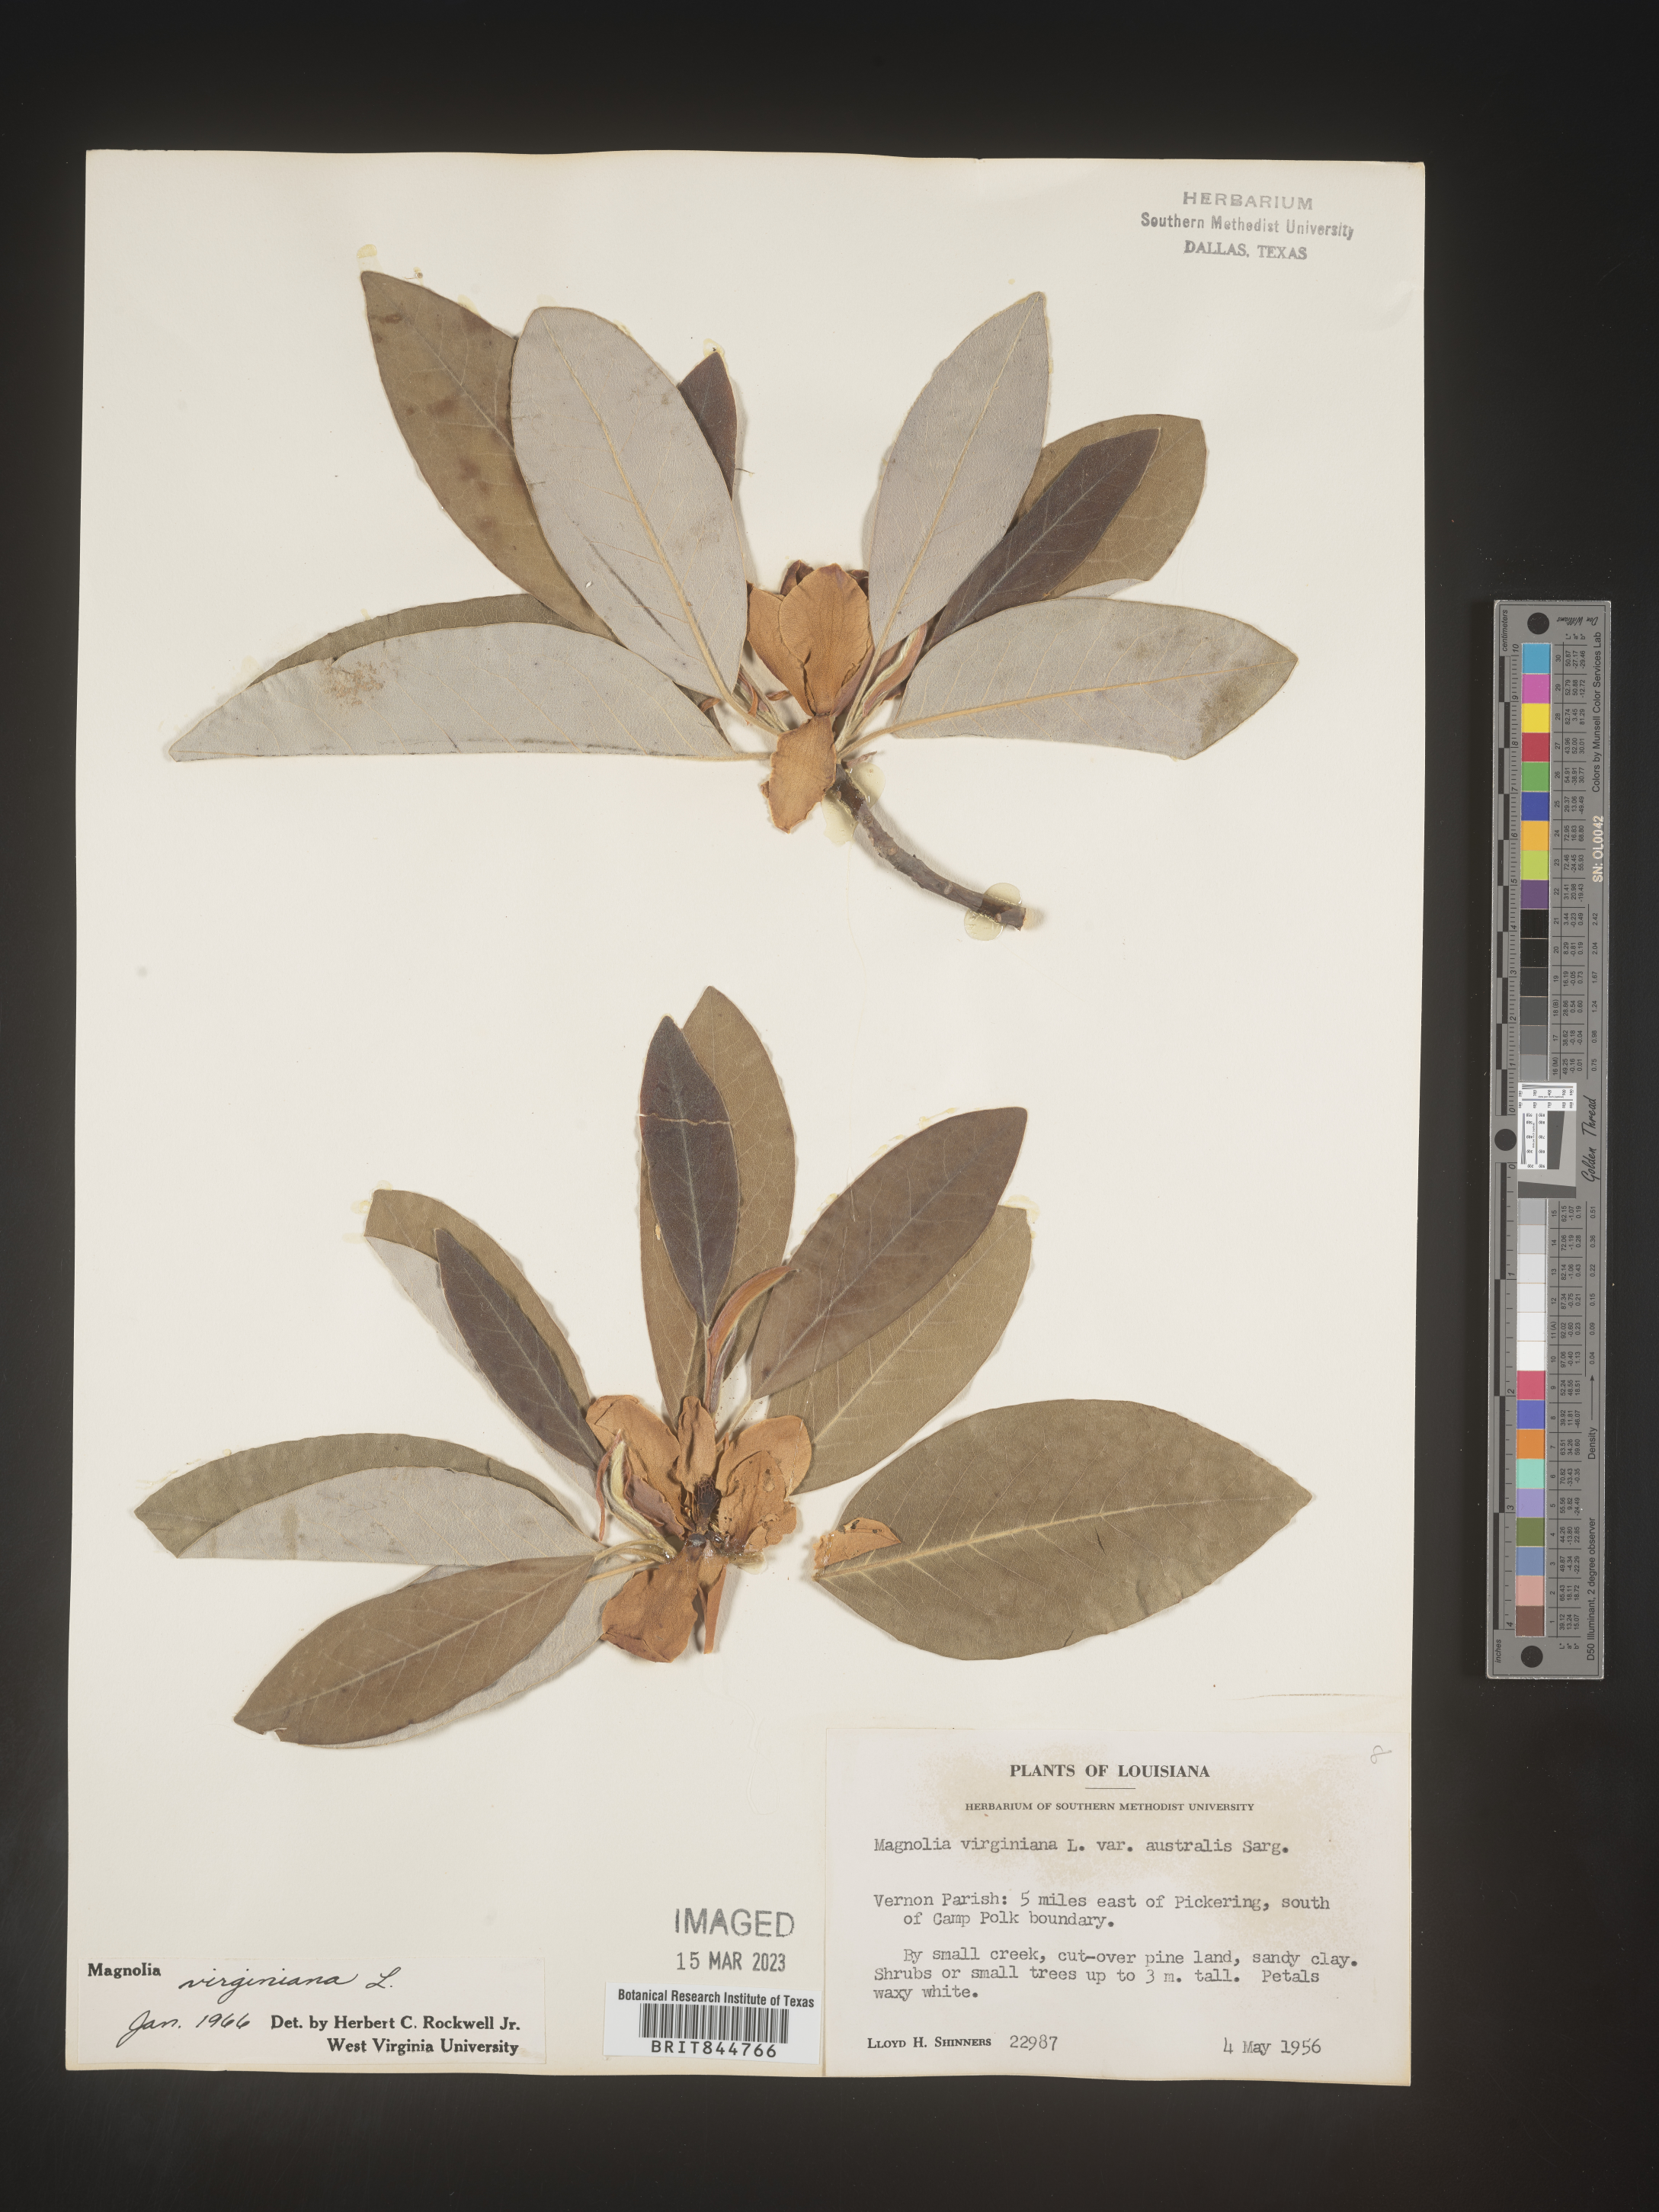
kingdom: Plantae
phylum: Tracheophyta
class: Magnoliopsida
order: Magnoliales
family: Magnoliaceae
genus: Magnolia
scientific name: Magnolia virginiana
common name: Swamp bay
